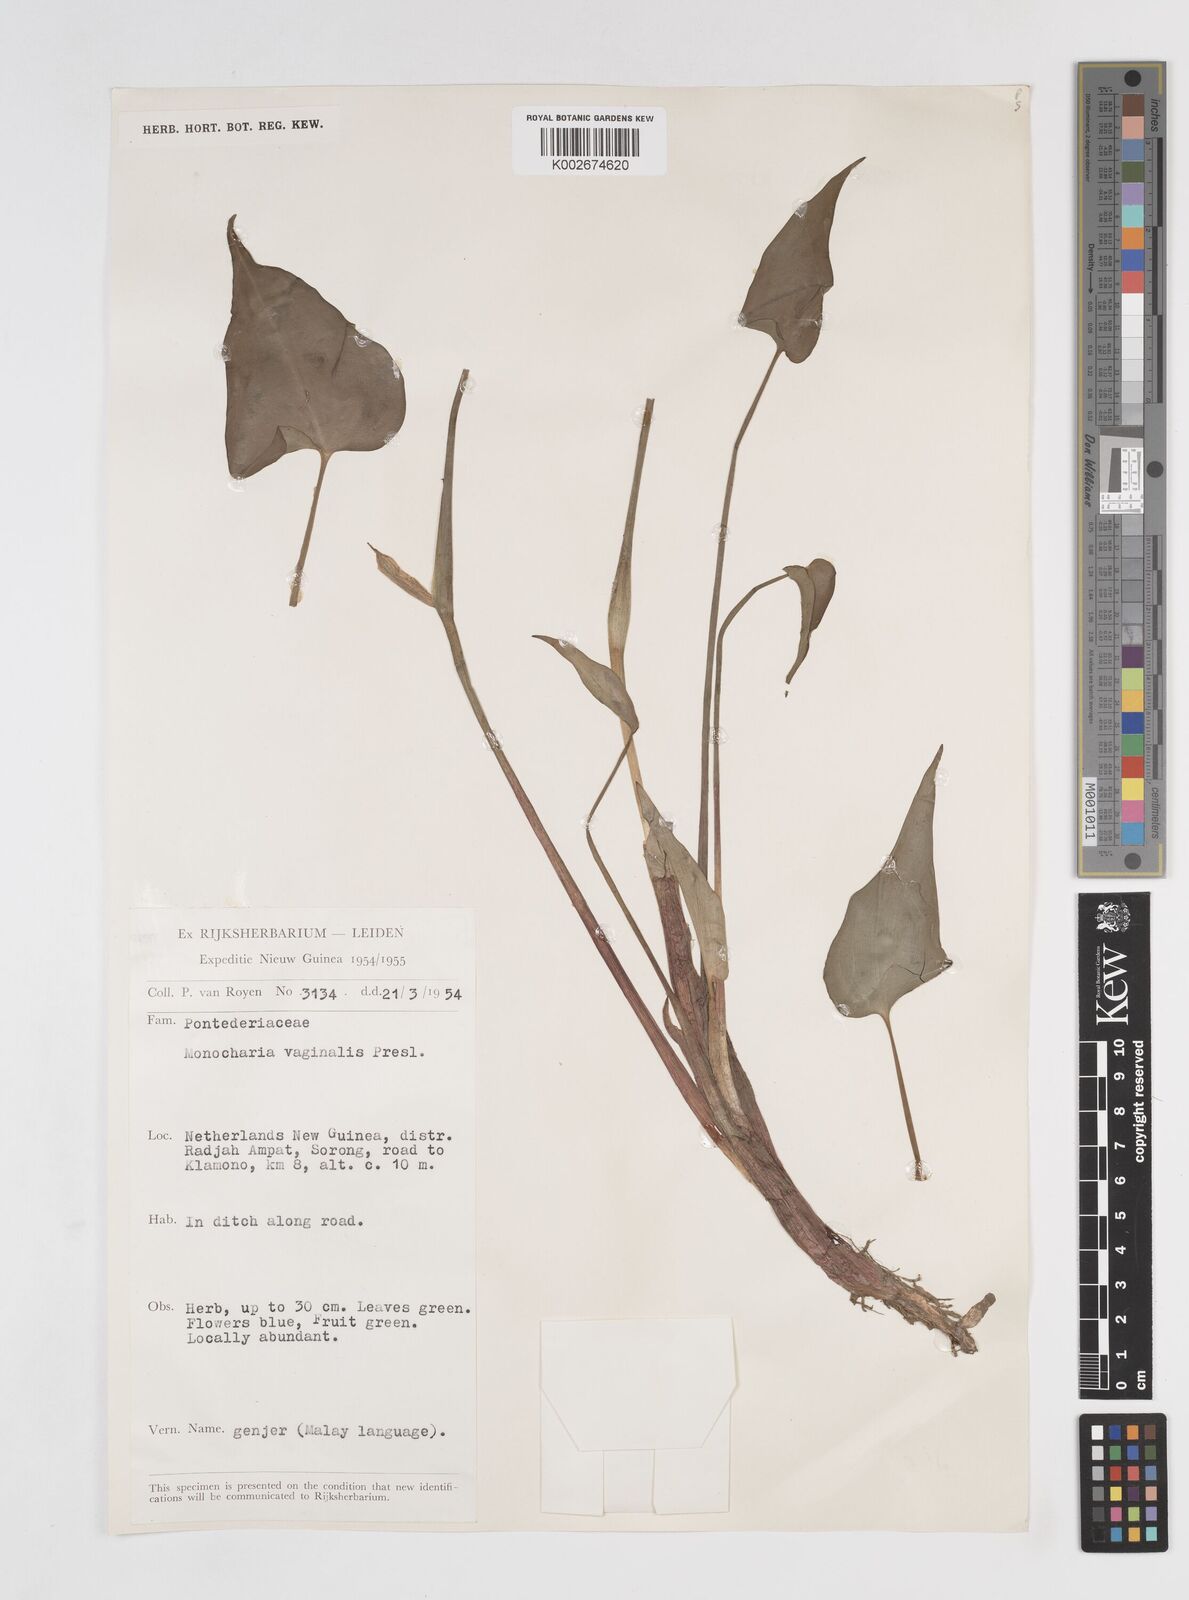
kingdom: Plantae
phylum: Tracheophyta
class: Liliopsida
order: Commelinales
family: Pontederiaceae
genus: Pontederia
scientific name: Pontederia vaginalis
